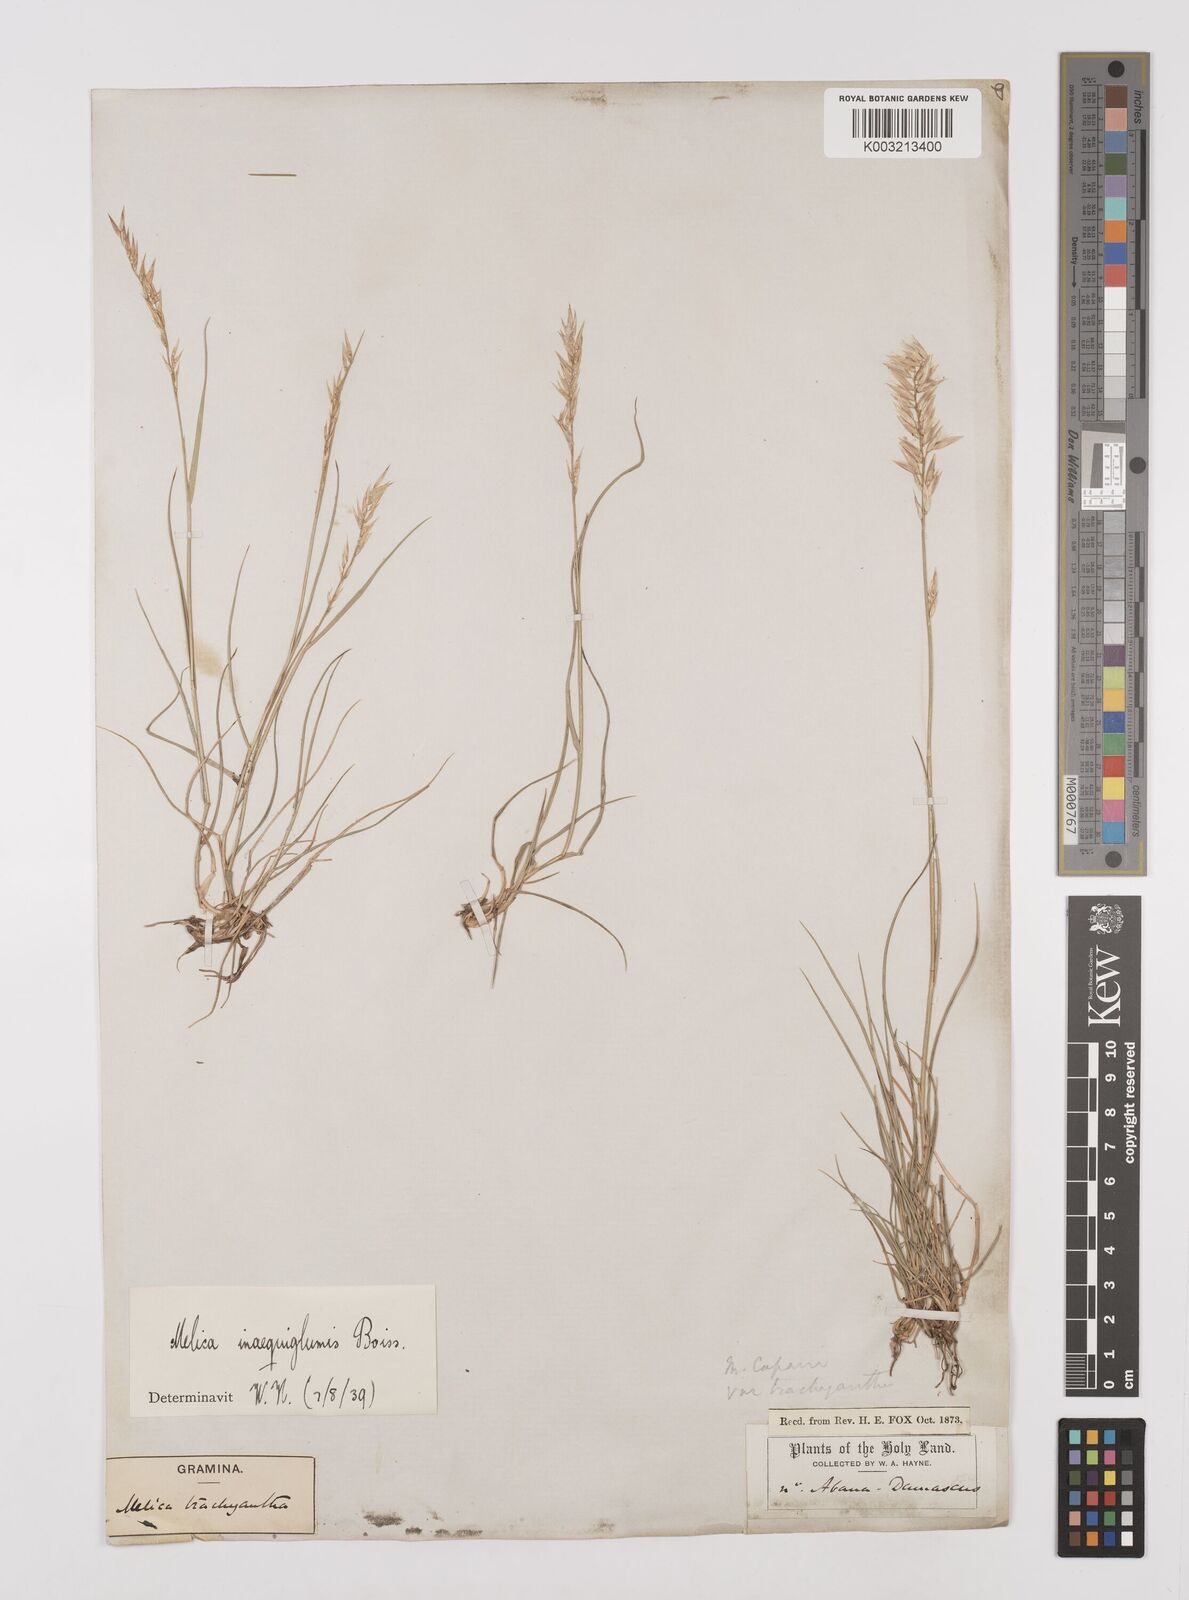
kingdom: Plantae
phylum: Tracheophyta
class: Liliopsida
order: Poales
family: Poaceae
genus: Melica
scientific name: Melica persica
